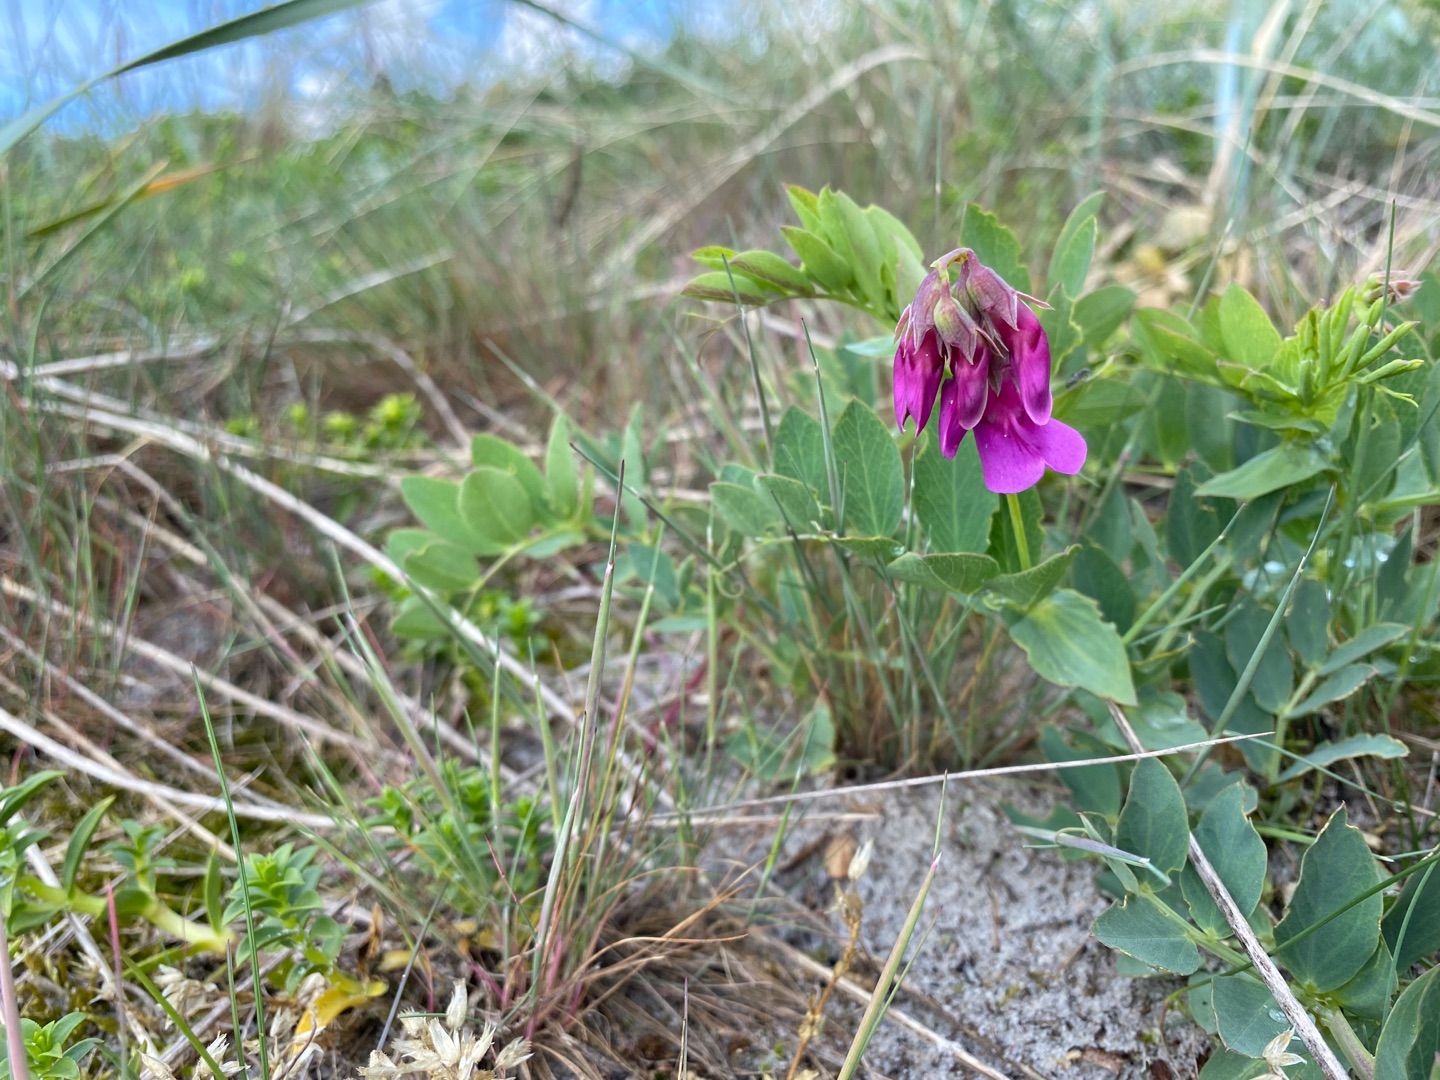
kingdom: Plantae
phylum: Tracheophyta
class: Magnoliopsida
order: Fabales
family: Fabaceae
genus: Lathyrus
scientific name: Lathyrus japonicus
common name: Strand-fladbælg
